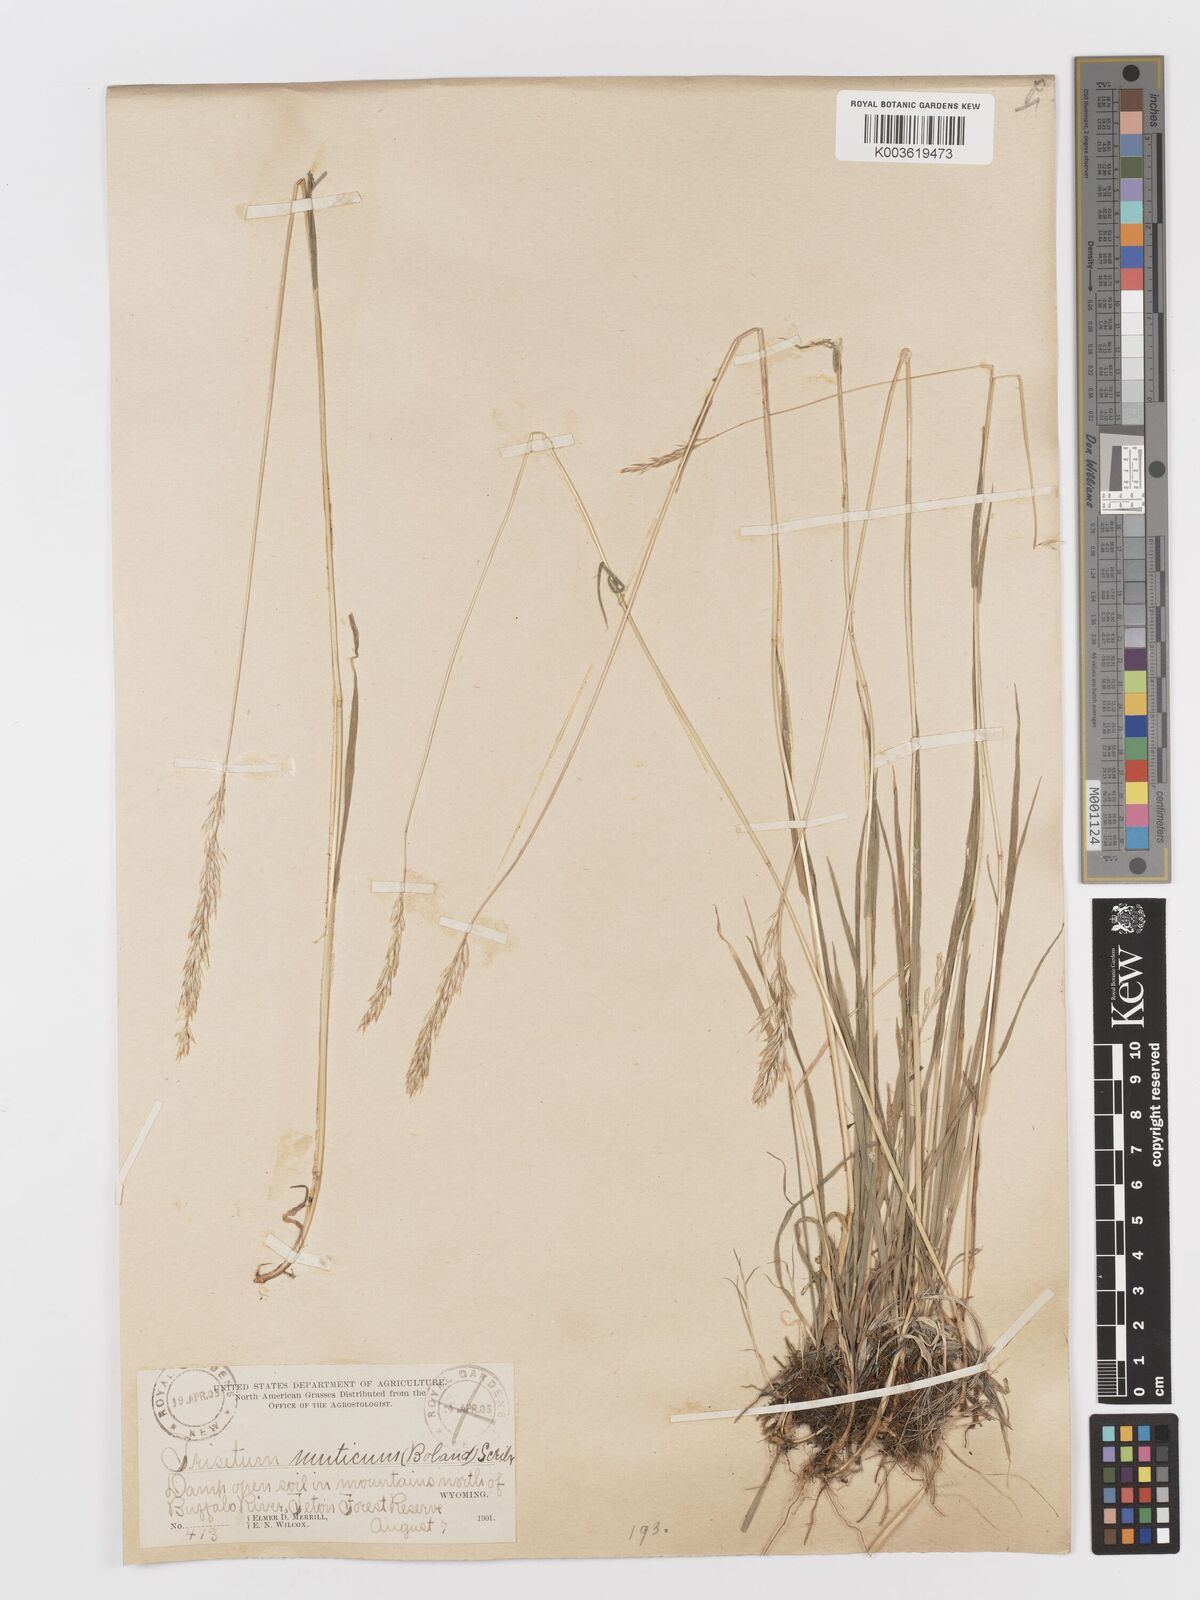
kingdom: Plantae
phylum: Tracheophyta
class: Liliopsida
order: Poales
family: Poaceae
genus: Graphephorum
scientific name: Graphephorum wolfii
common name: Wolf's trisetum
